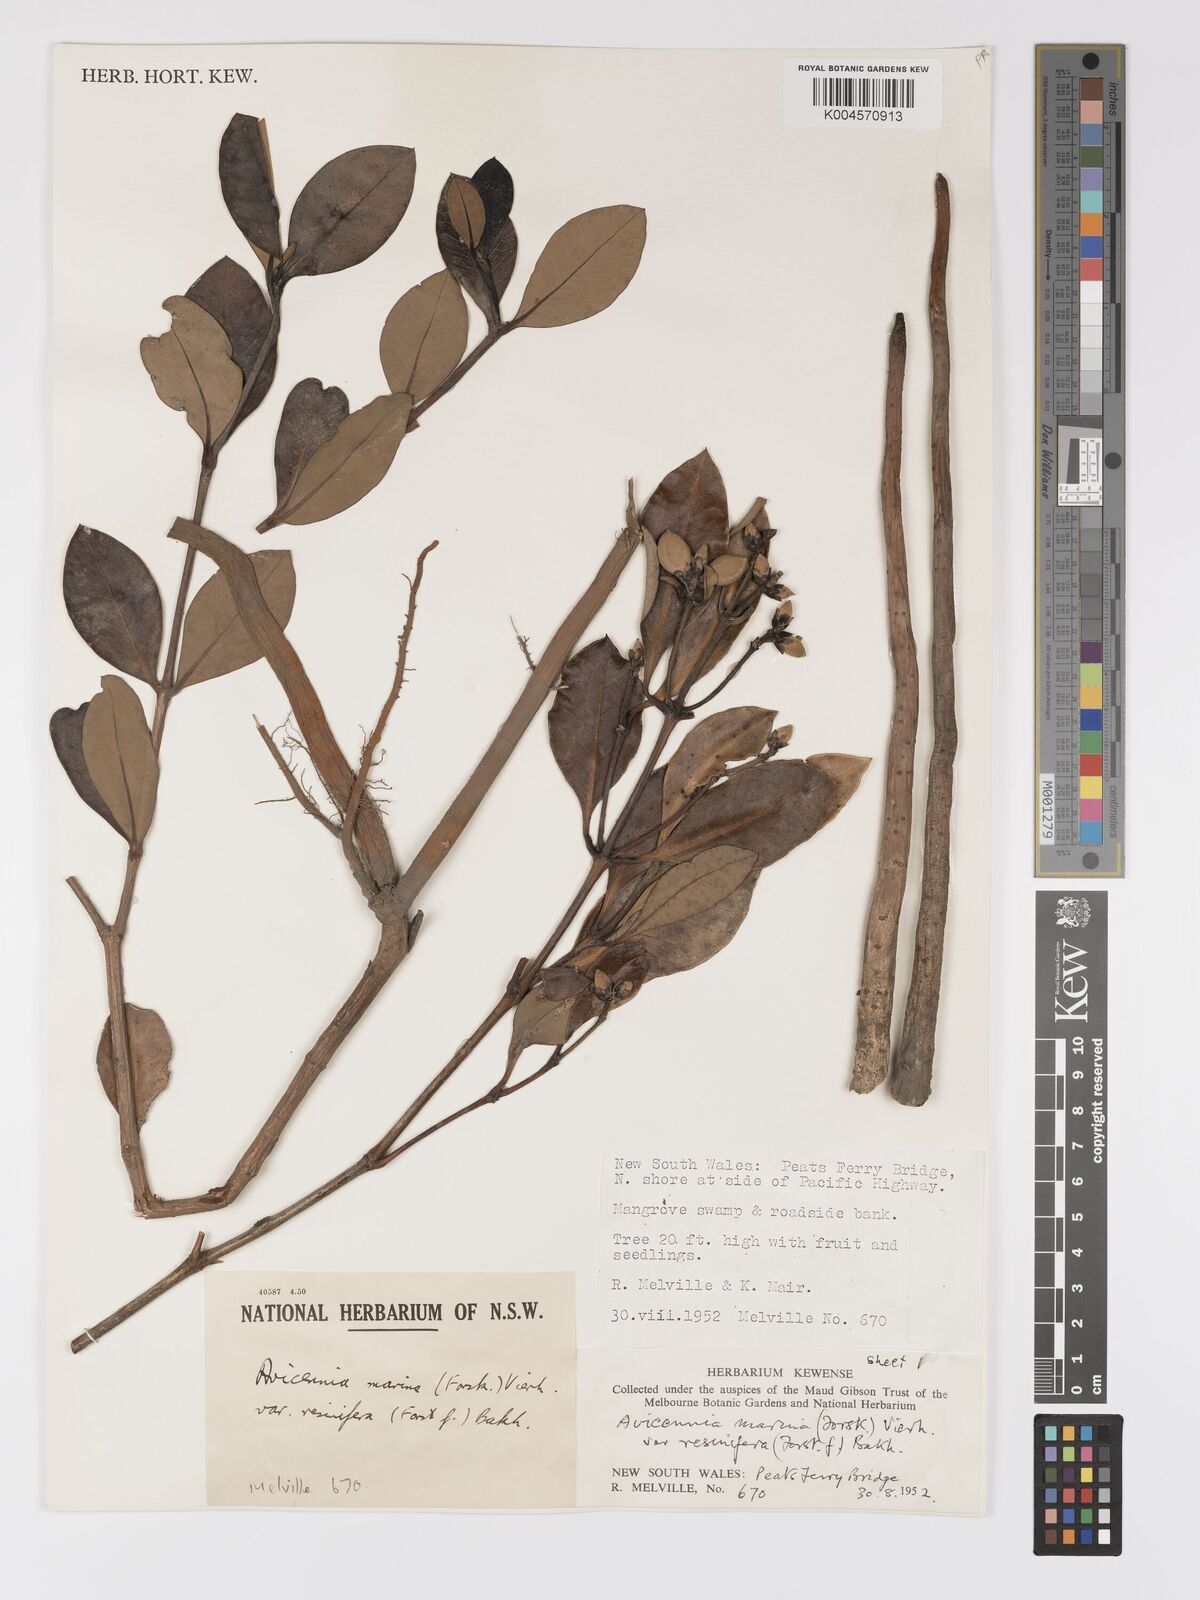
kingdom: Plantae
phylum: Tracheophyta
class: Magnoliopsida
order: Lamiales
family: Acanthaceae
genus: Avicennia
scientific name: Avicennia marina
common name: Gray mangrove
